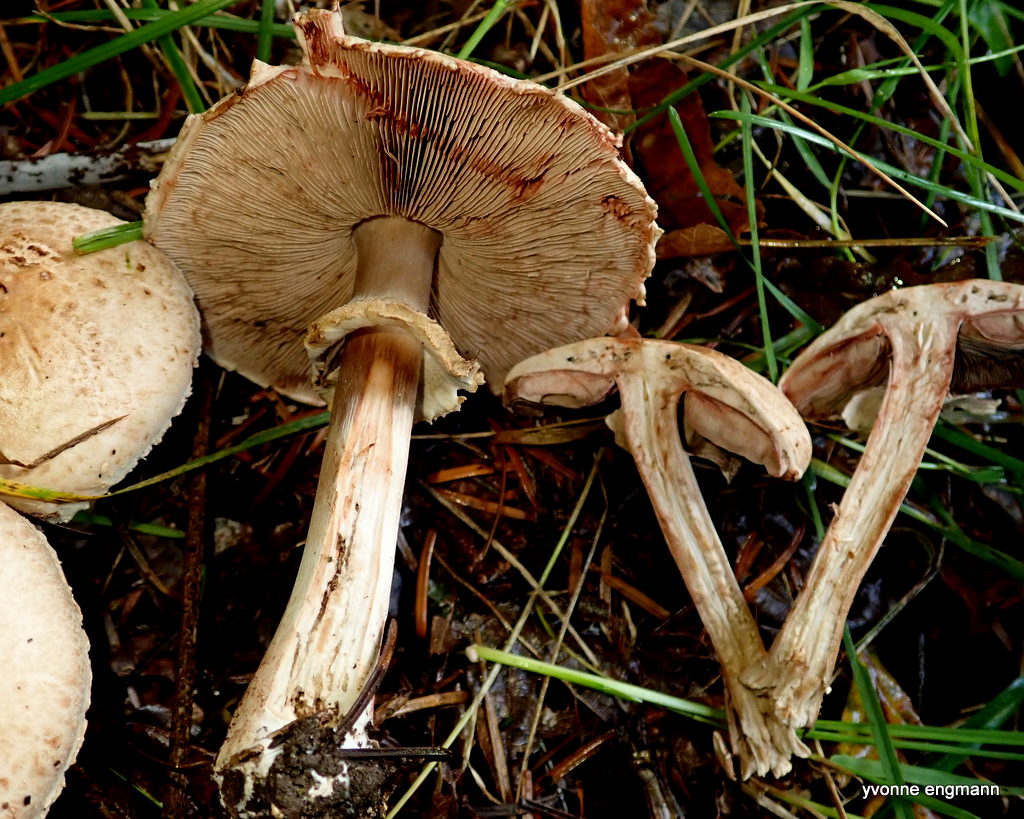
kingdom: Fungi
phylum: Basidiomycota
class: Agaricomycetes
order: Agaricales
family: Agaricaceae
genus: Agaricus
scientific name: Agaricus sylvaticus
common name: lille blod-champignon
